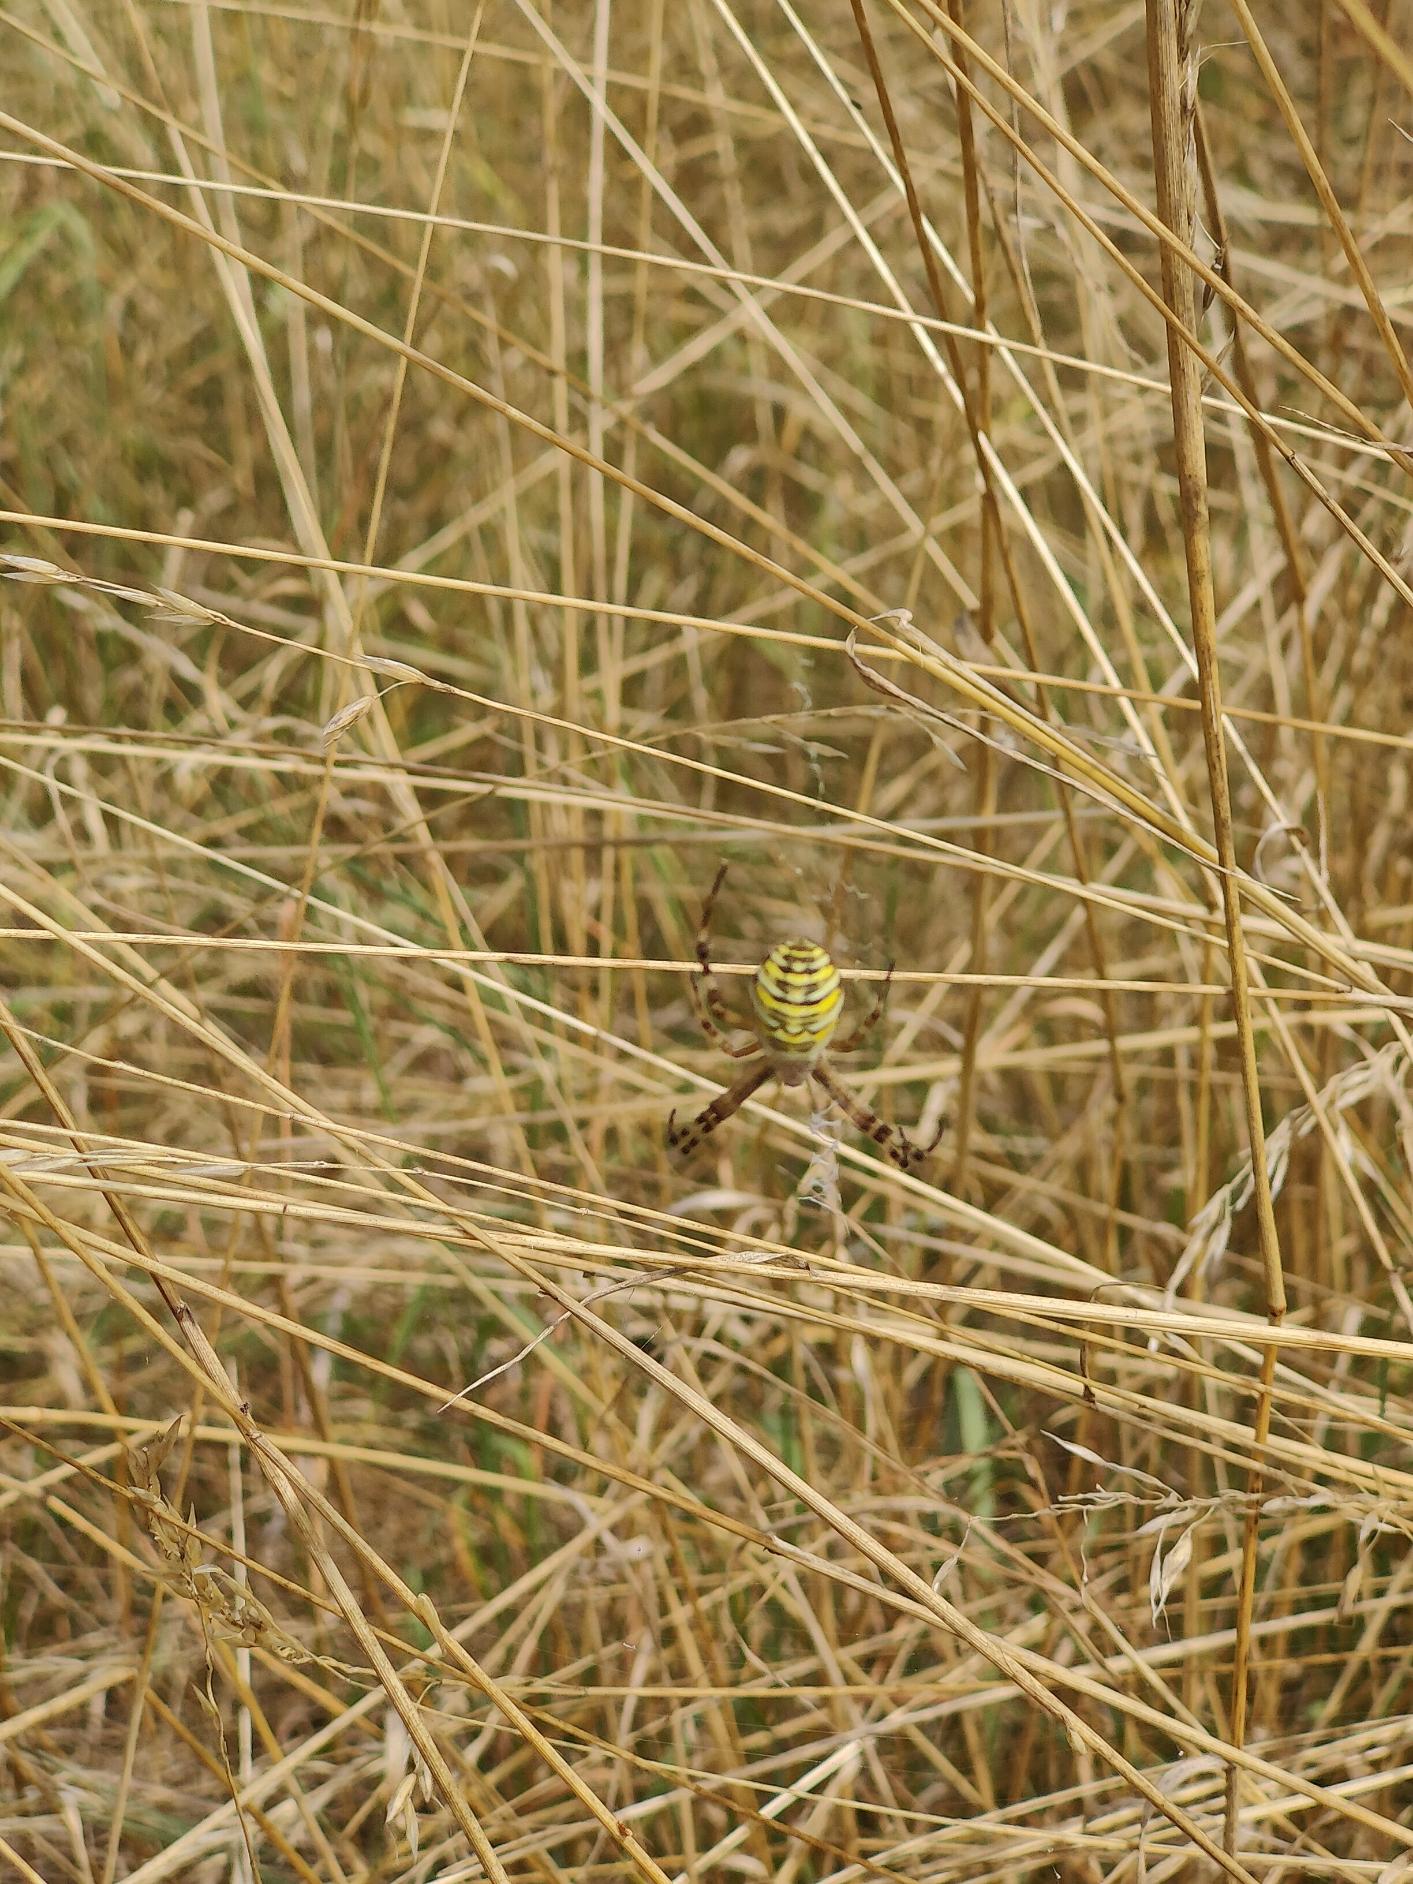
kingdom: Animalia
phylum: Arthropoda
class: Arachnida
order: Araneae
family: Araneidae
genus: Argiope
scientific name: Argiope bruennichi
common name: Hvepseedderkop
